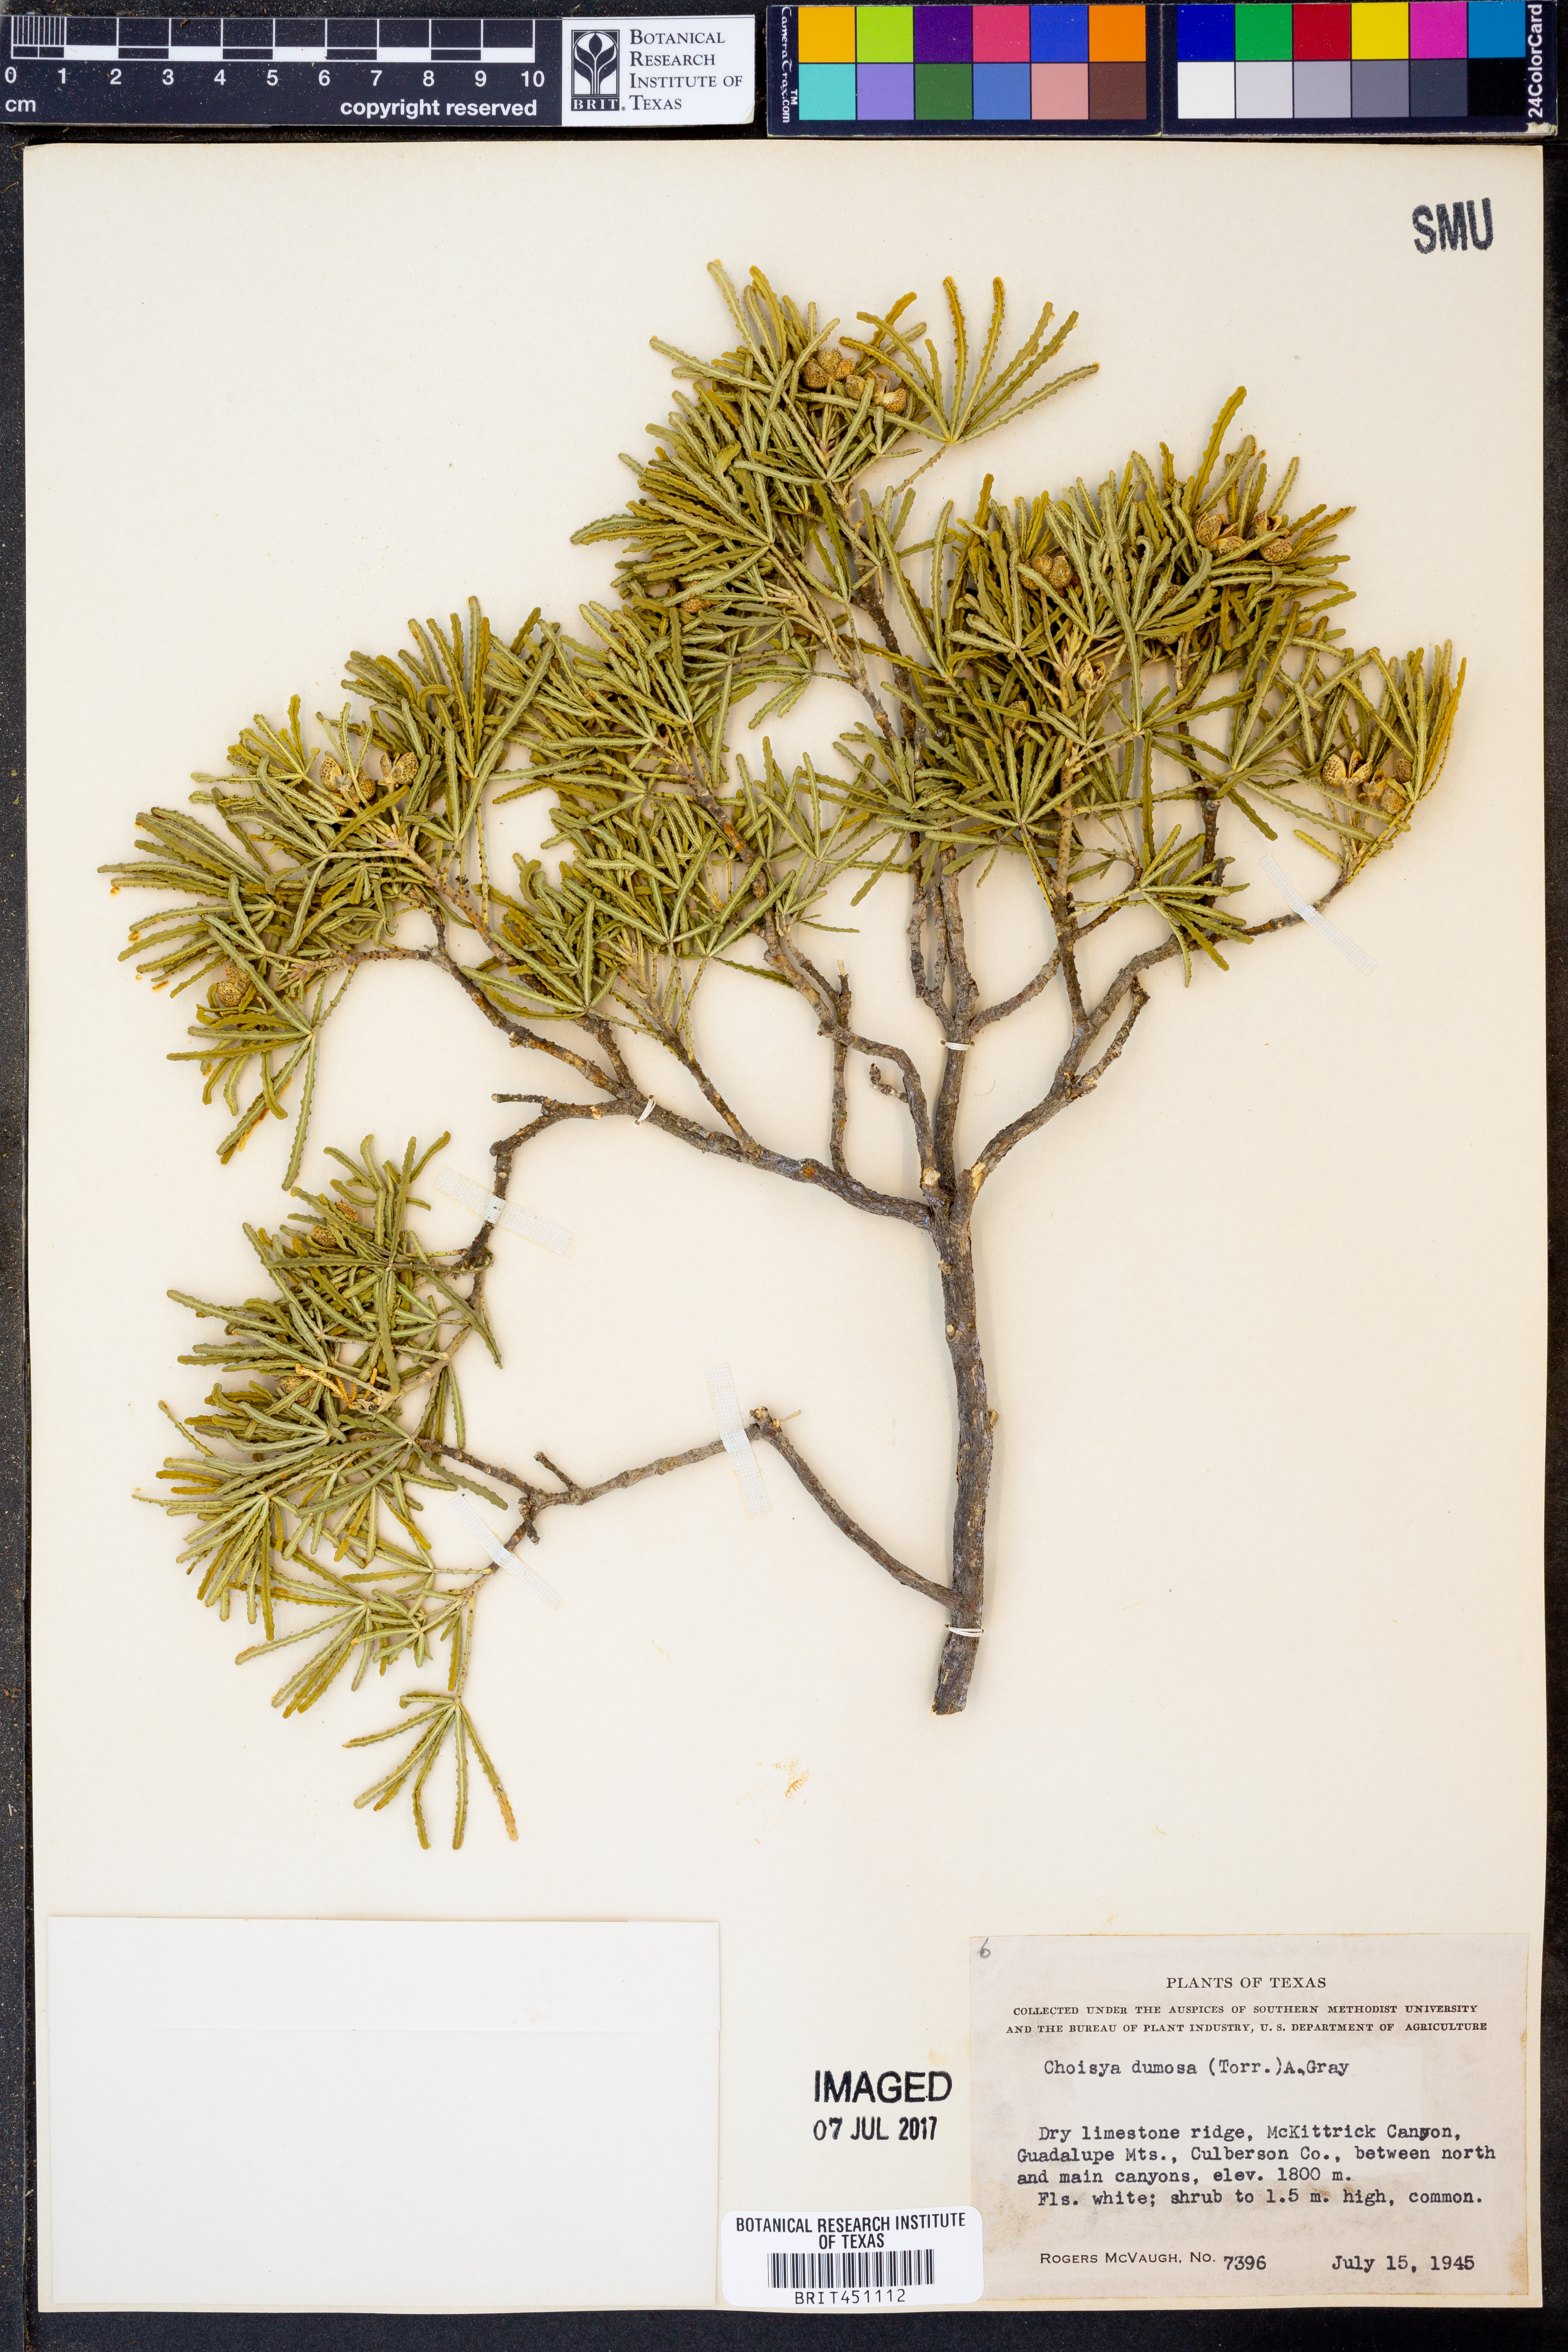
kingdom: Plantae
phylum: Tracheophyta
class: Magnoliopsida
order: Sapindales
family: Rutaceae
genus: Choisya
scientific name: Choisya dumosa
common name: Mexican-orange
